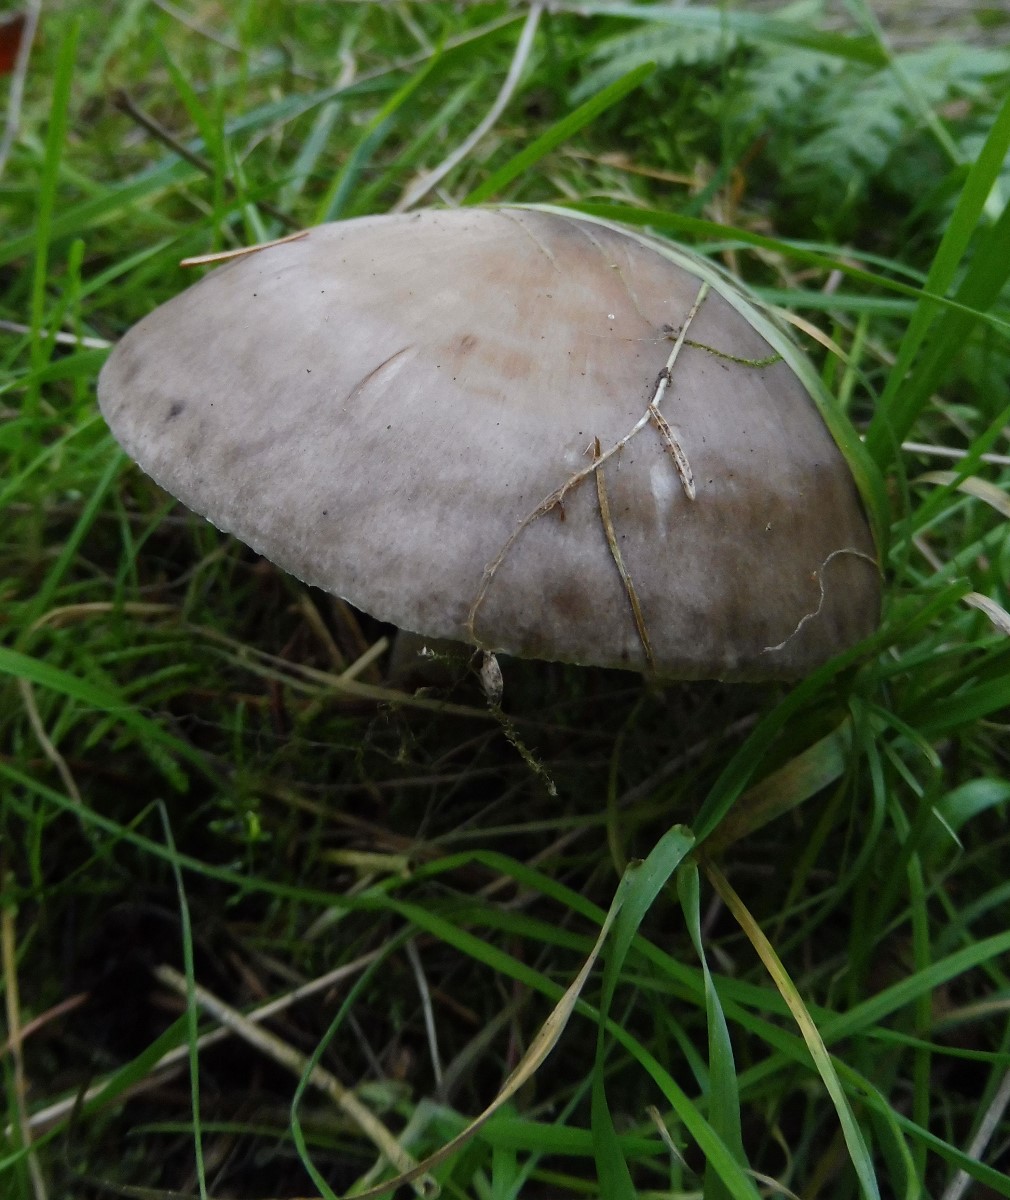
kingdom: Fungi
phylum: Basidiomycota
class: Agaricomycetes
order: Agaricales
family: Pluteaceae
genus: Pluteus
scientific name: Pluteus
